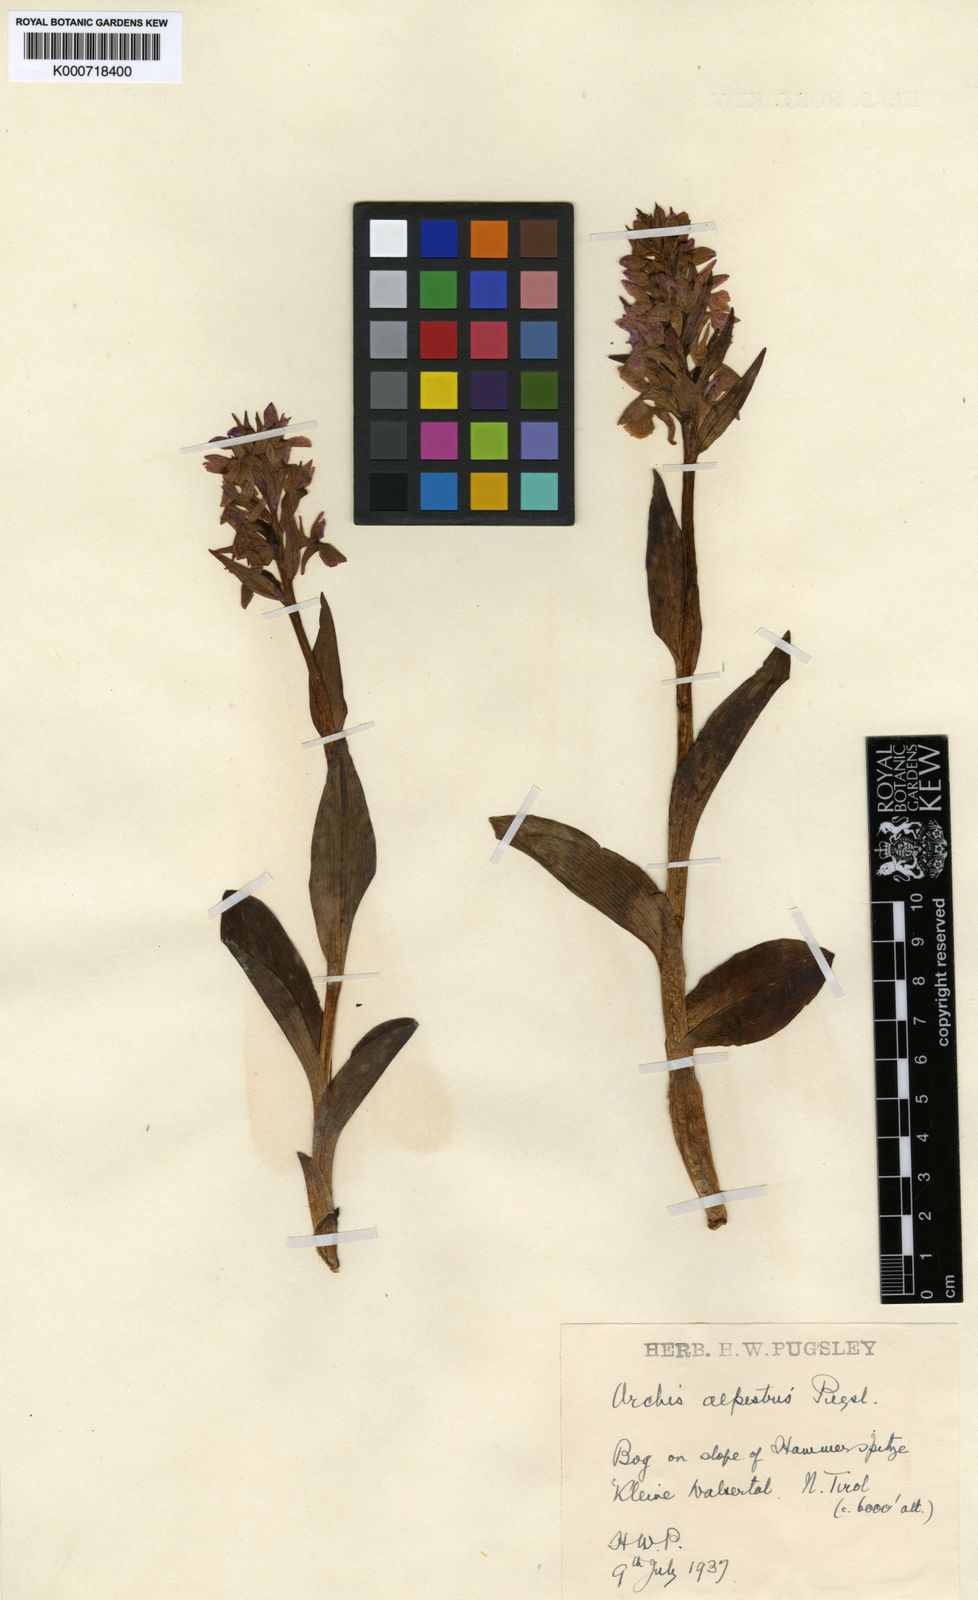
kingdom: Plantae
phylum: Tracheophyta
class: Liliopsida
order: Asparagales
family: Orchidaceae
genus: Dactylorhiza
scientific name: Dactylorhiza majalis
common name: Marsh orchid
